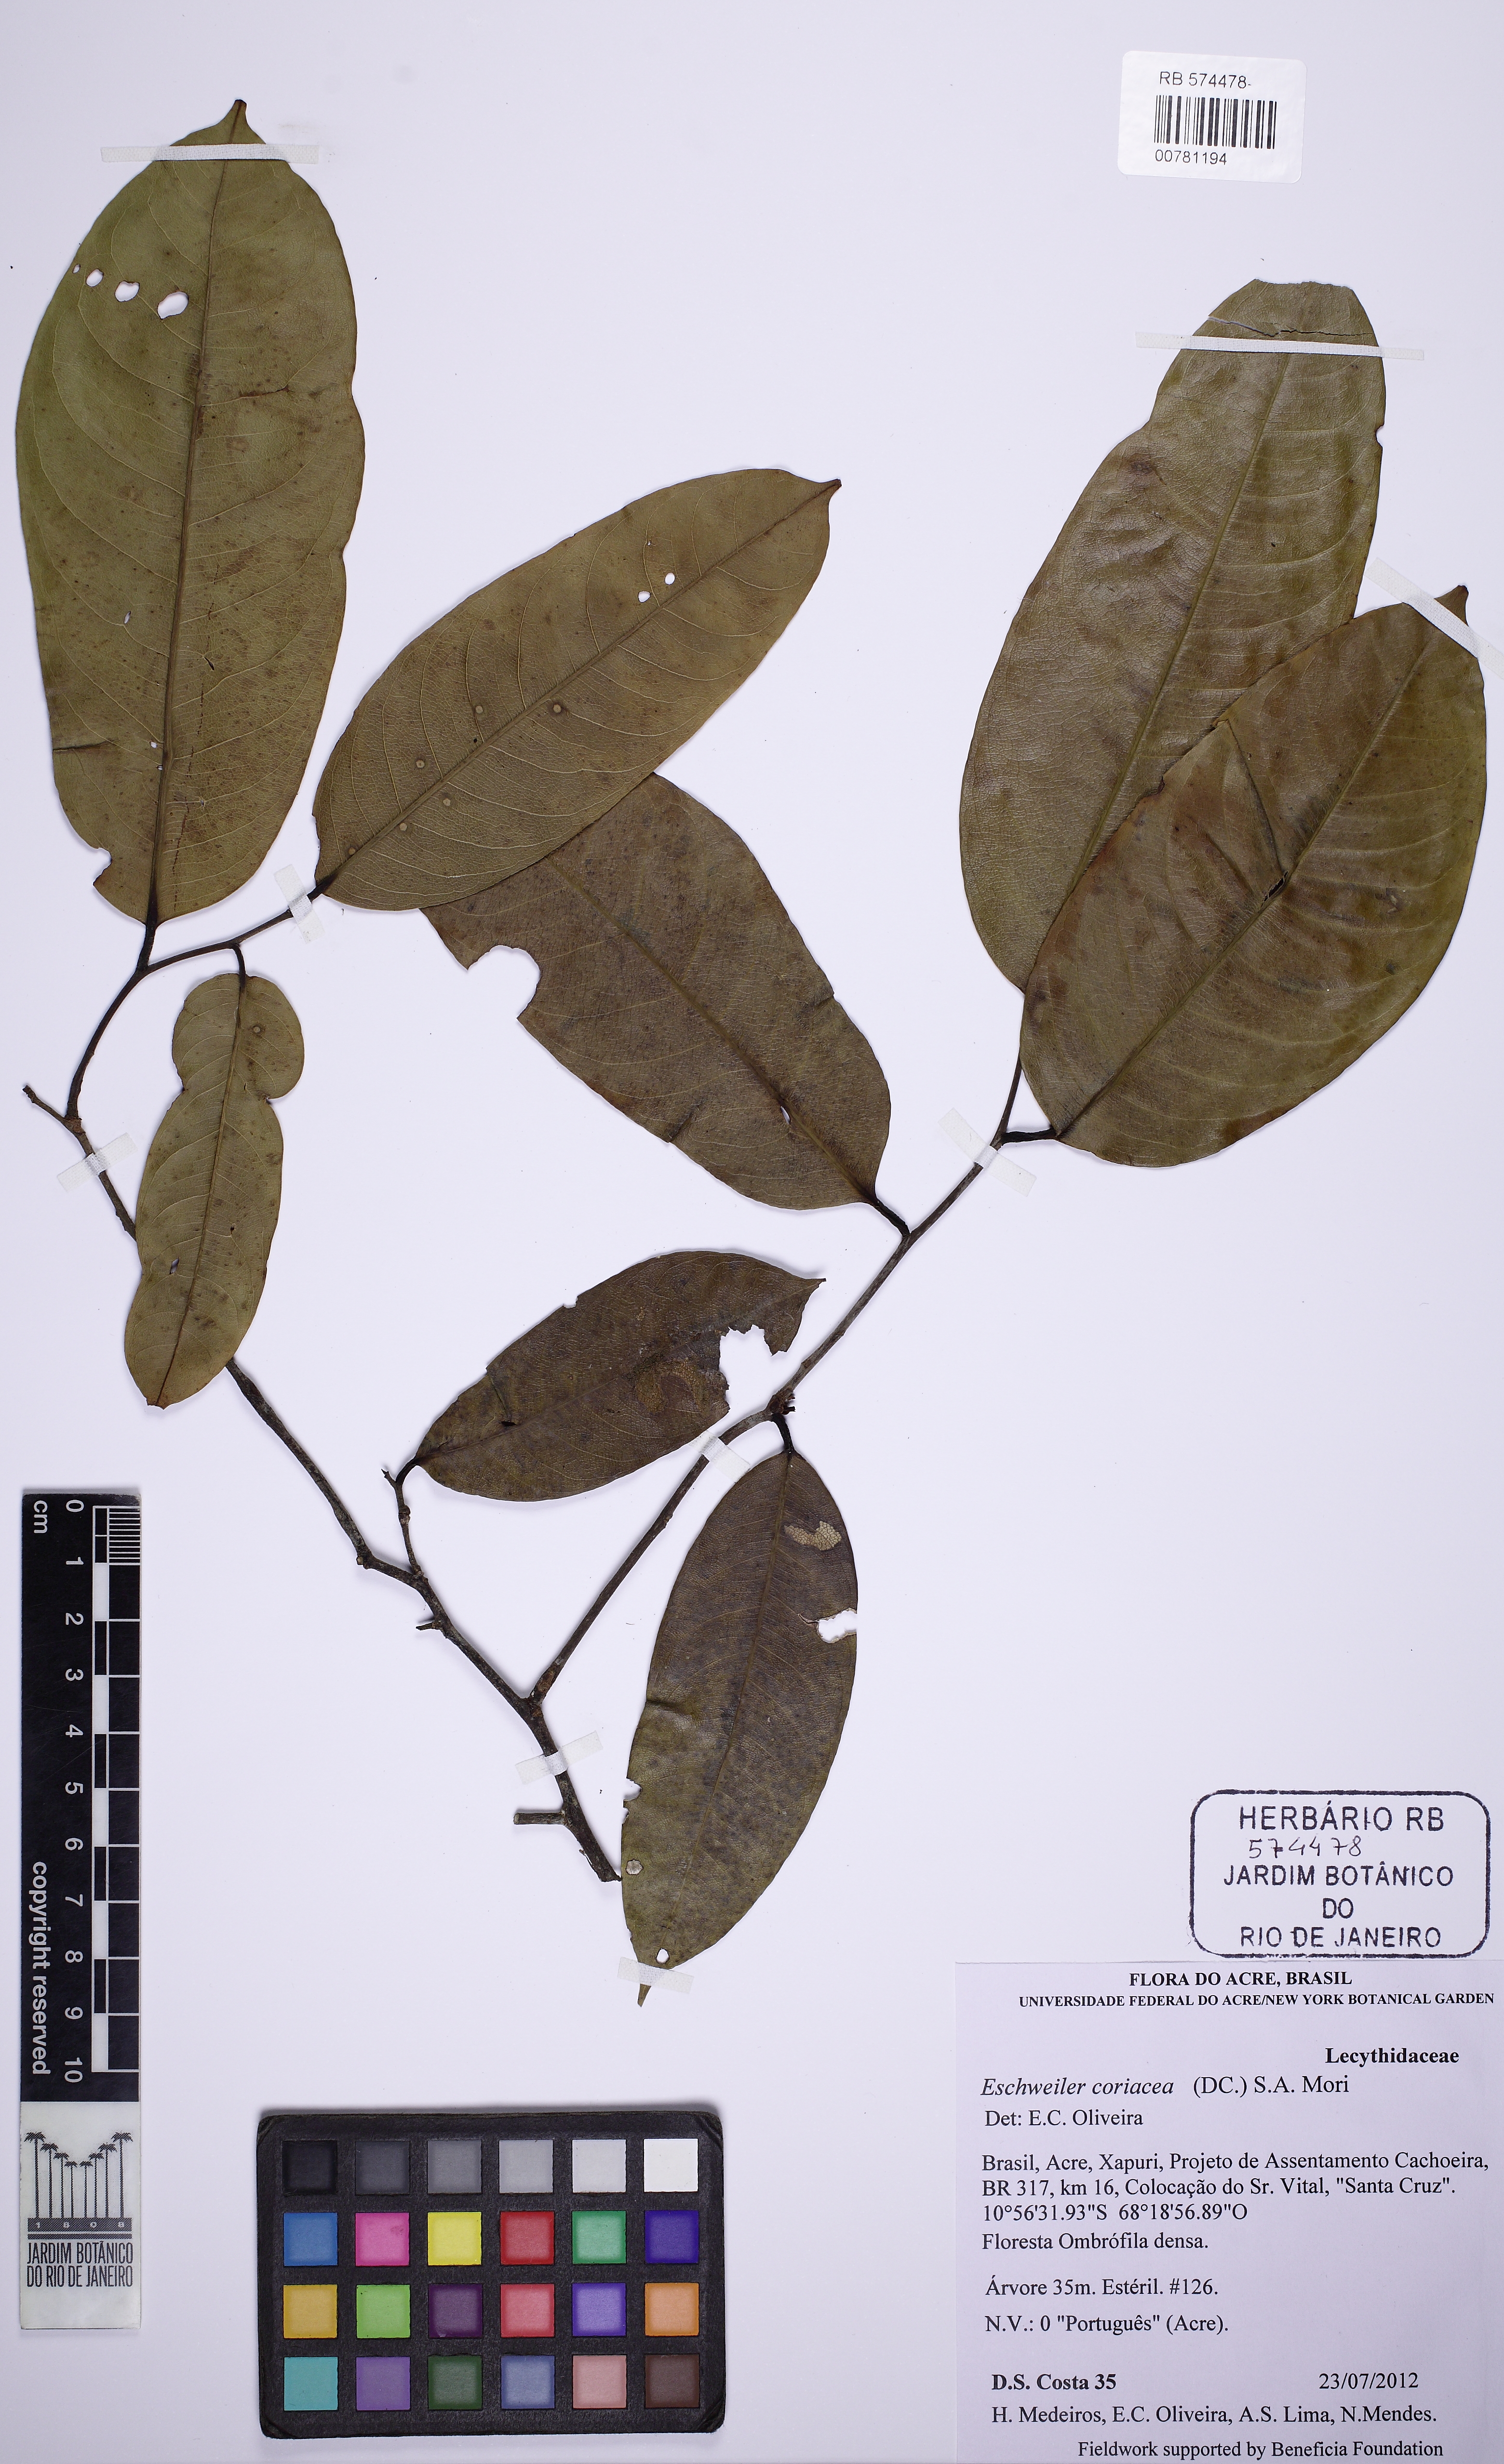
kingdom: Plantae
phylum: Tracheophyta
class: Magnoliopsida
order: Ericales
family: Lecythidaceae
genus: Eschweilera
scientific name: Eschweilera coriacea
